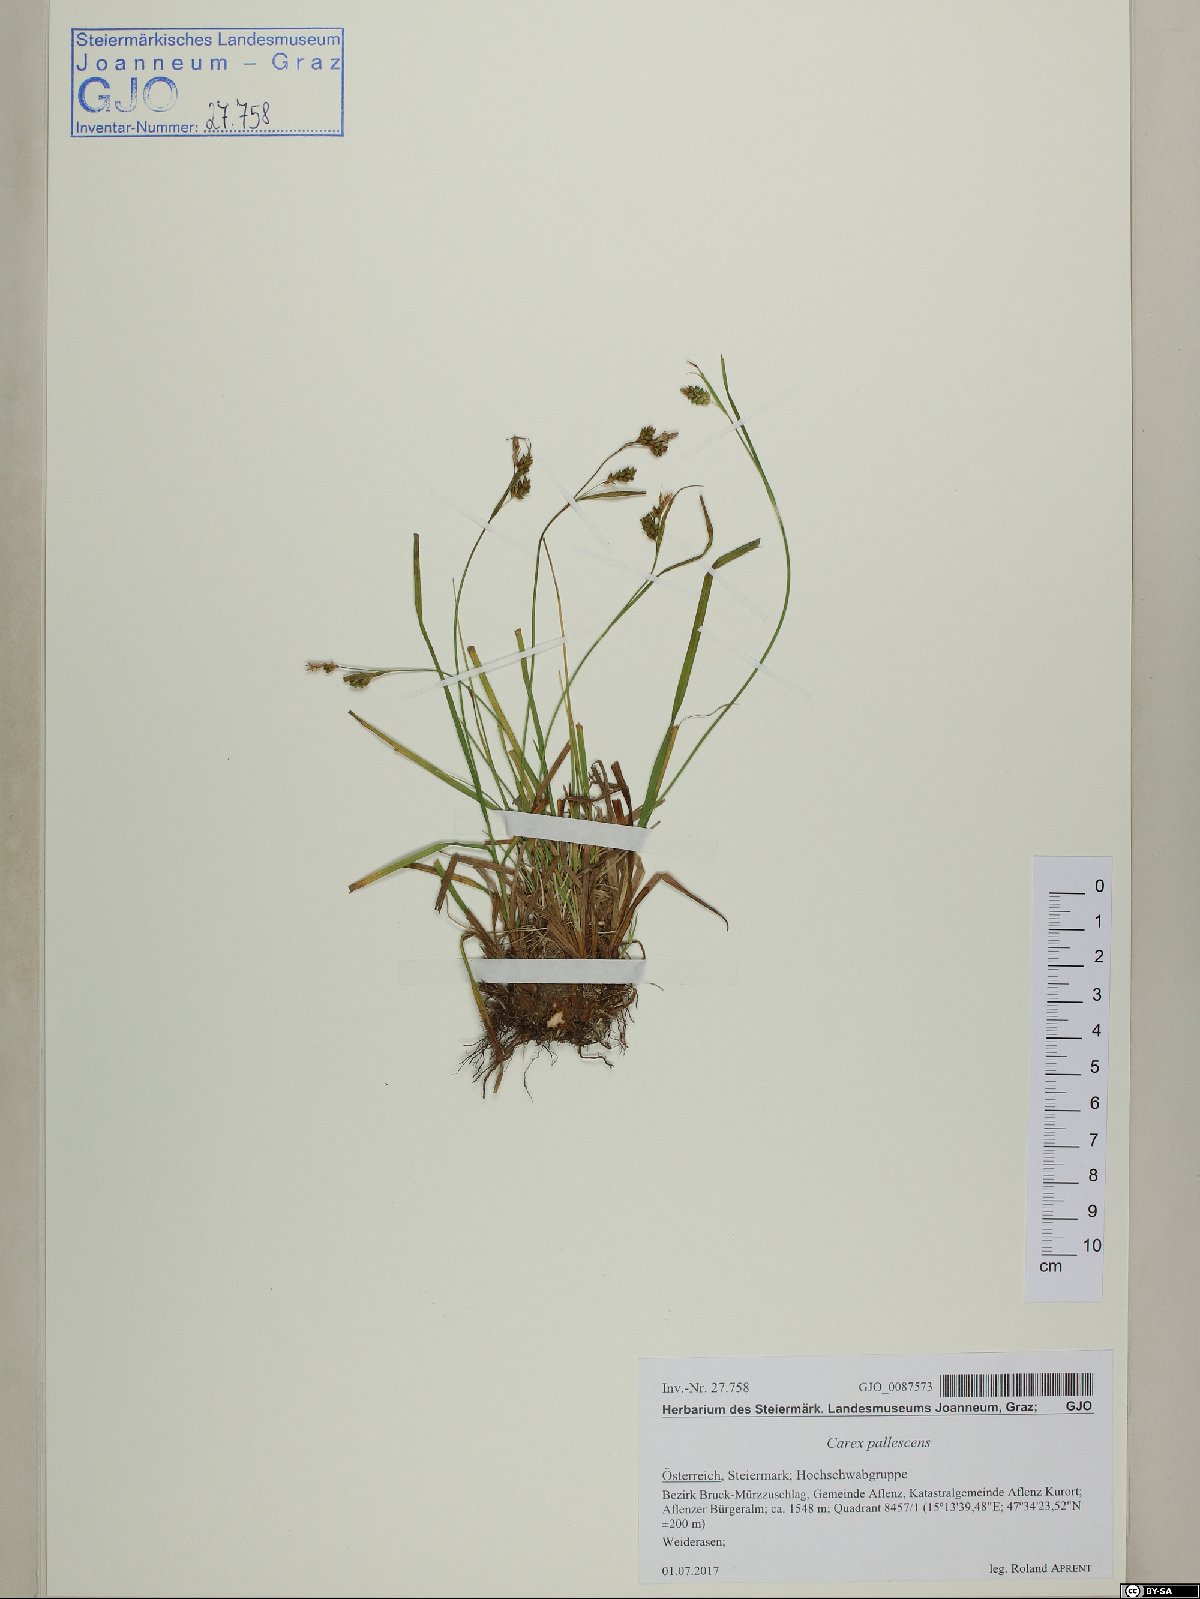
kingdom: Plantae
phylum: Tracheophyta
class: Liliopsida
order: Poales
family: Cyperaceae
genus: Carex
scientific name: Carex pallescens
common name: Pale sedge
